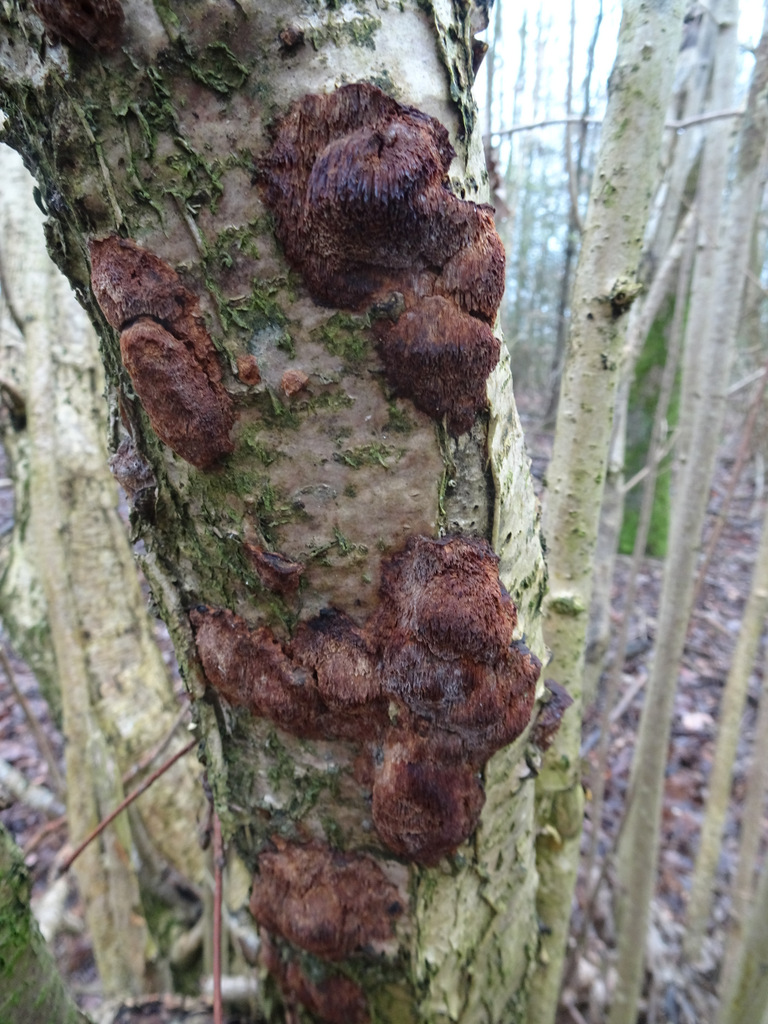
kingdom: Fungi
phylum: Basidiomycota
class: Agaricomycetes
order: Hymenochaetales
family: Hymenochaetaceae
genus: Xanthoporia
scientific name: Xanthoporia radiata
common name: elle-spejlporesvamp
